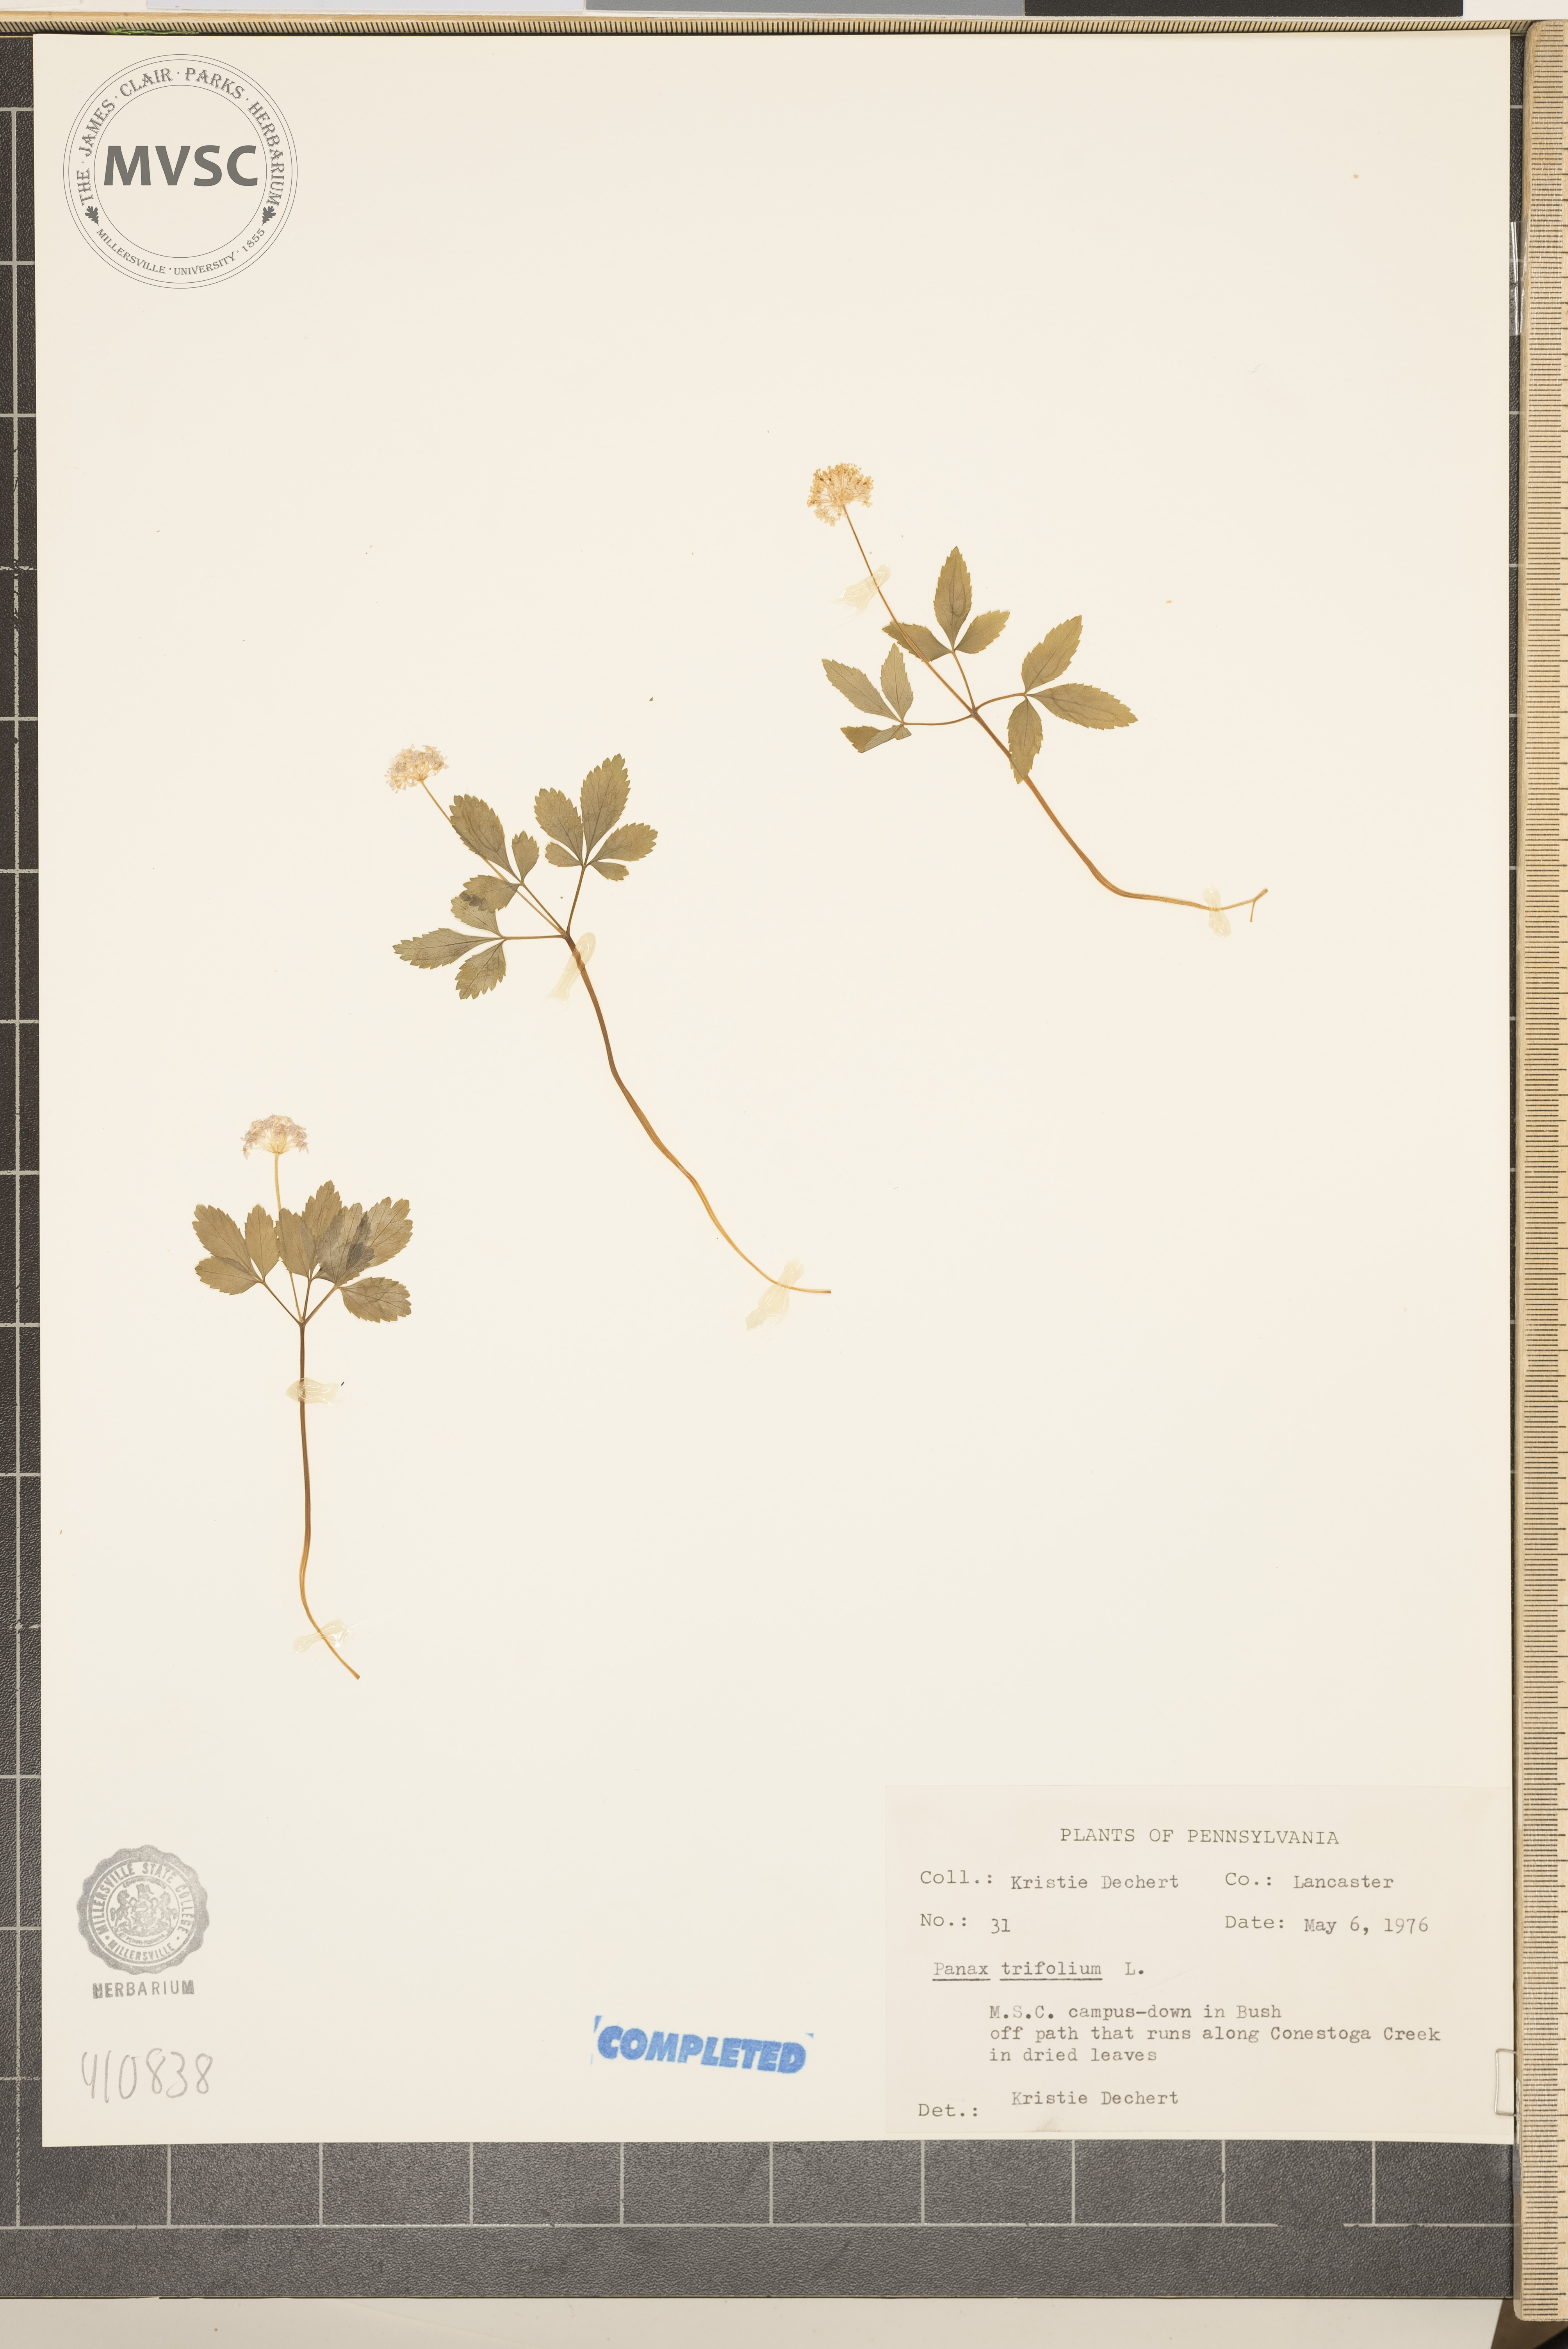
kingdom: Plantae
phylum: Tracheophyta
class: Magnoliopsida
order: Apiales
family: Araliaceae
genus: Panax
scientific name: Panax trifolius
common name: Dwarf ginseng
